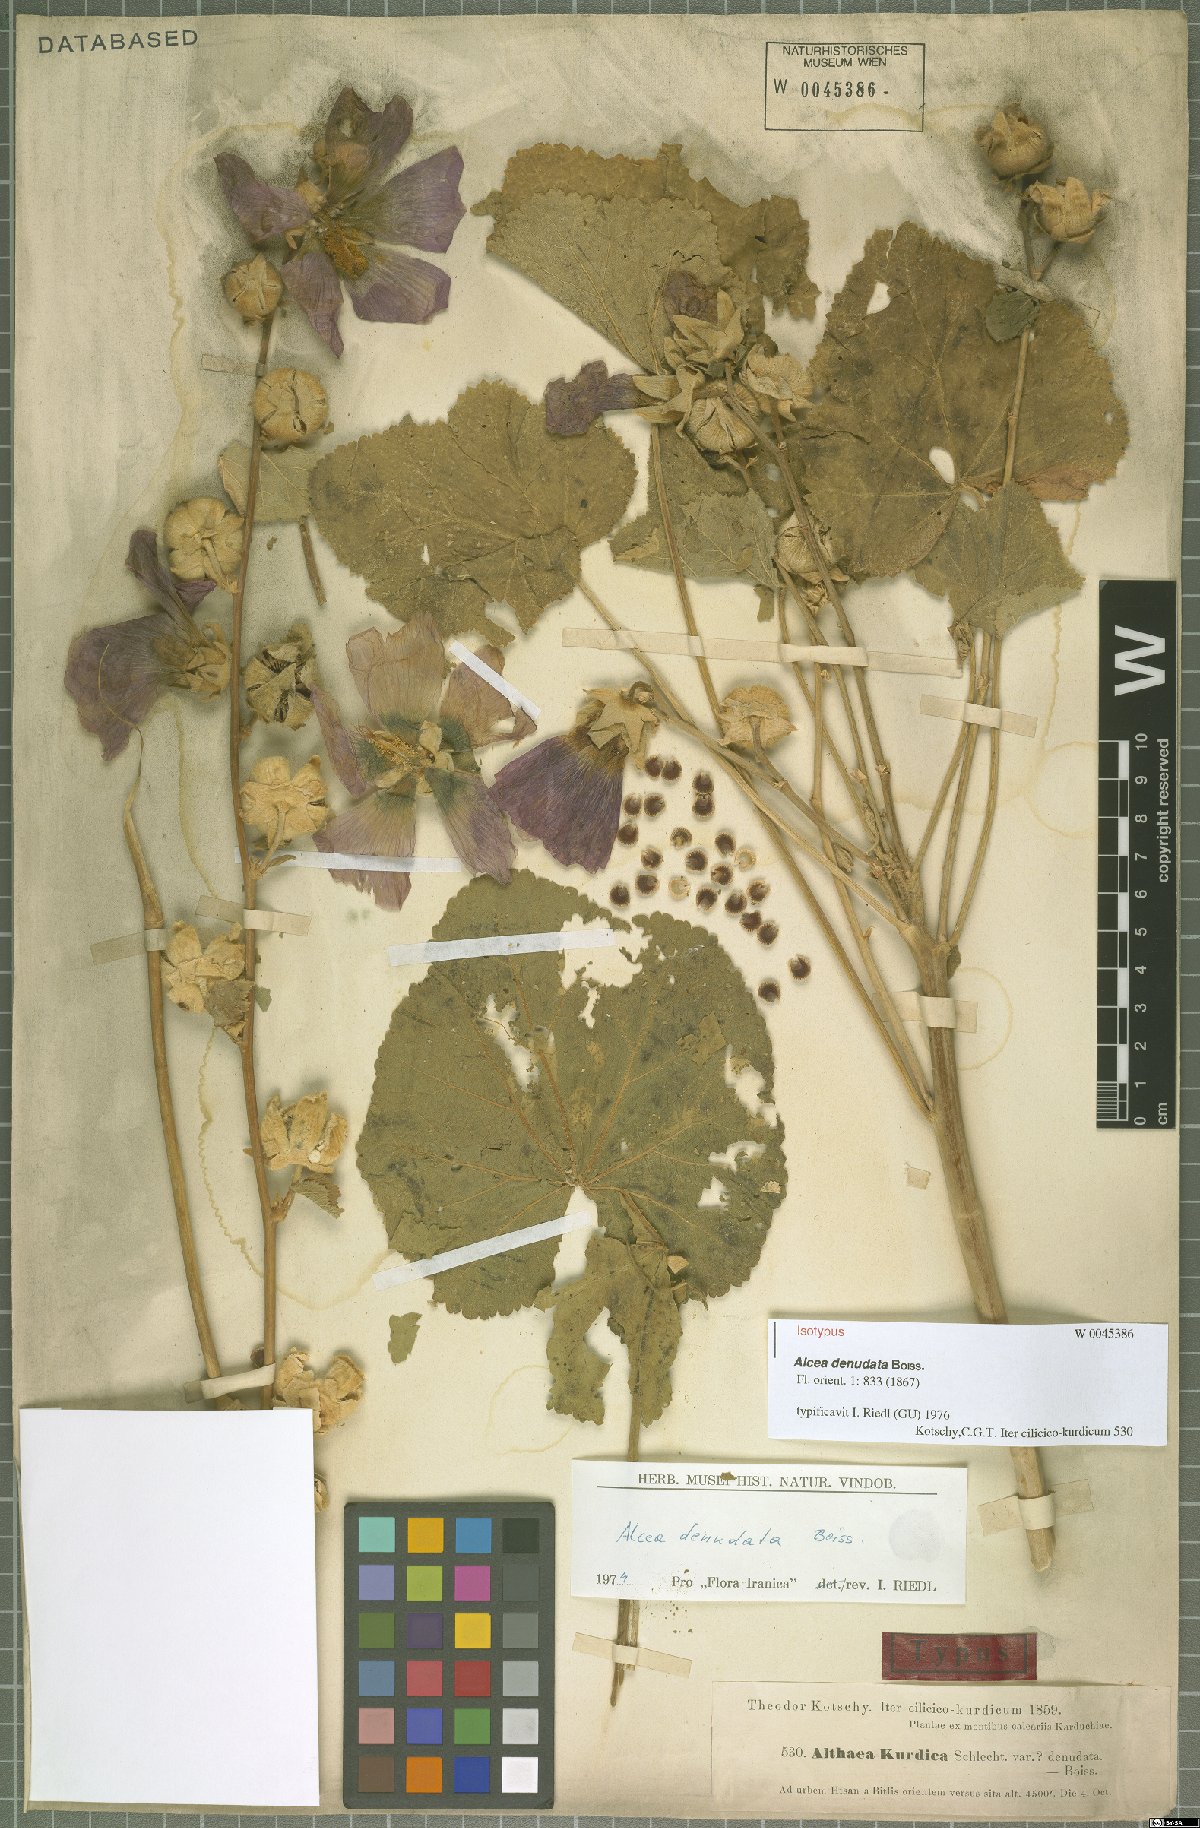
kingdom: Plantae
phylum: Tracheophyta
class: Magnoliopsida
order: Malvales
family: Malvaceae
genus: Alcea
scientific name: Alcea kurdica
